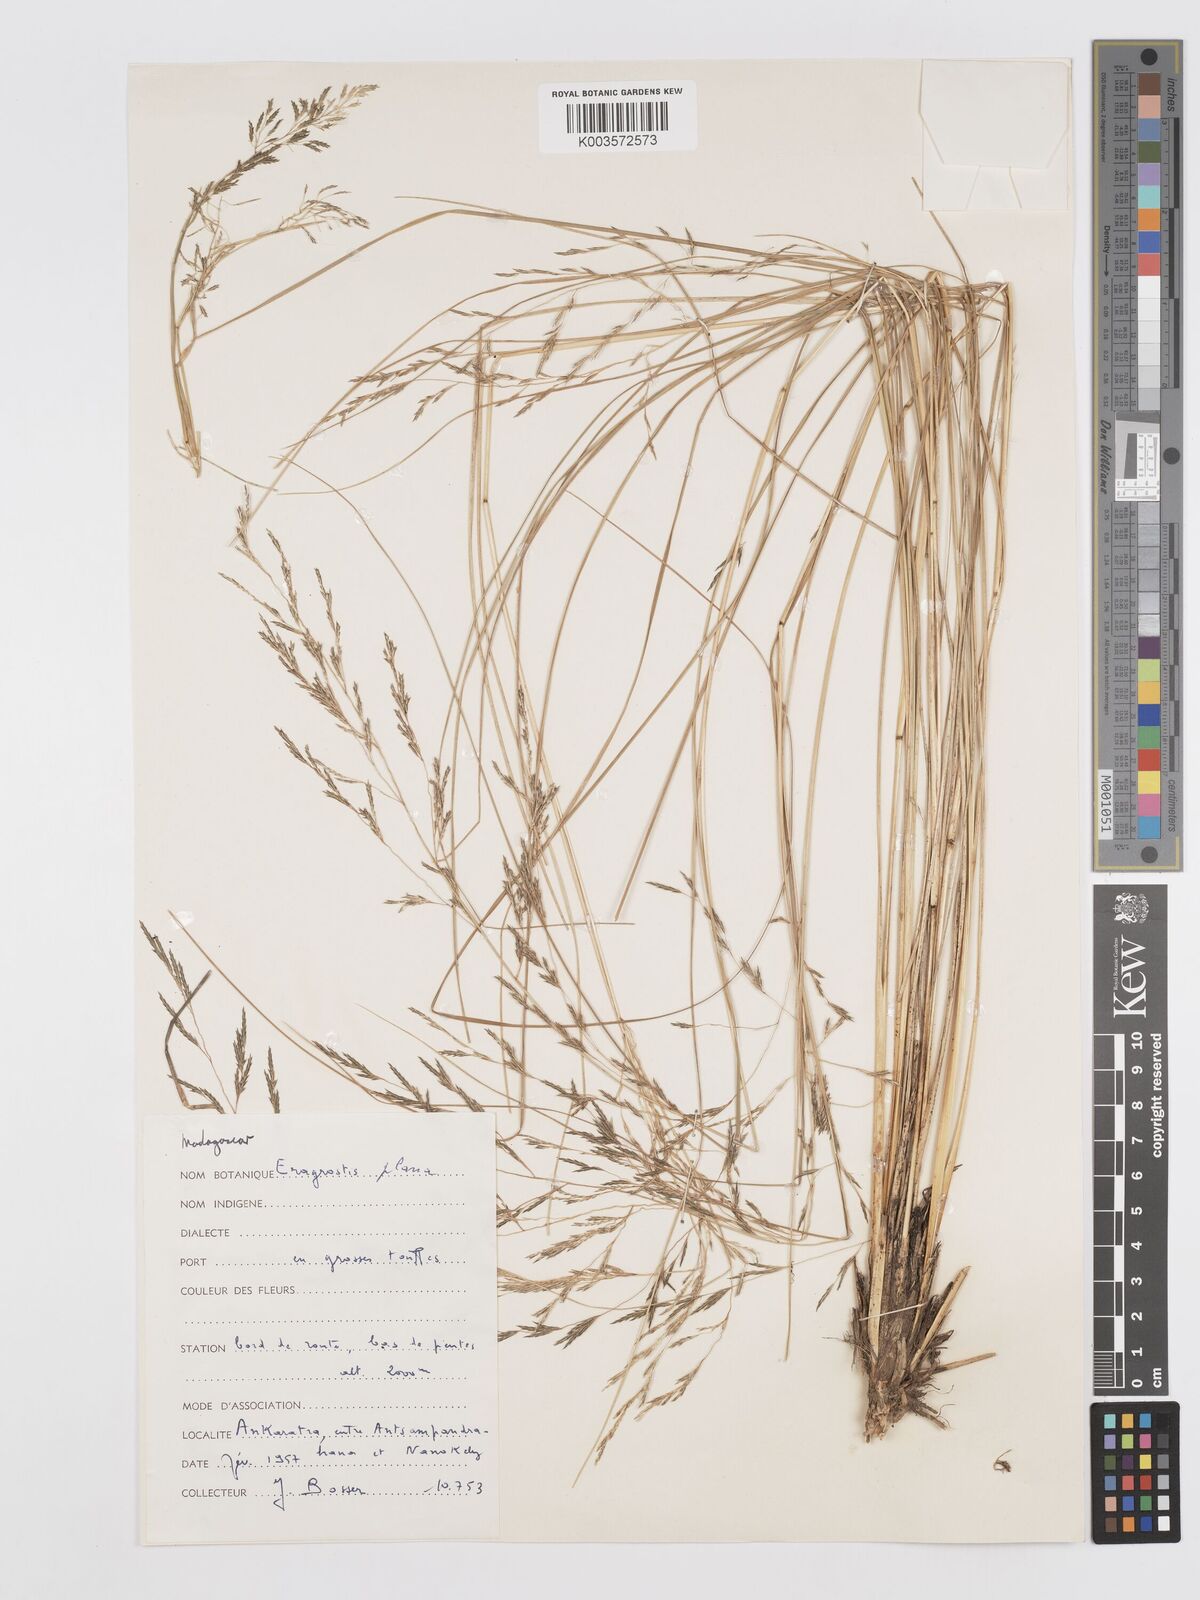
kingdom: Plantae
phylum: Tracheophyta
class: Liliopsida
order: Poales
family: Poaceae
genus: Eragrostis
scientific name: Eragrostis plana
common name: South african lovegrass
